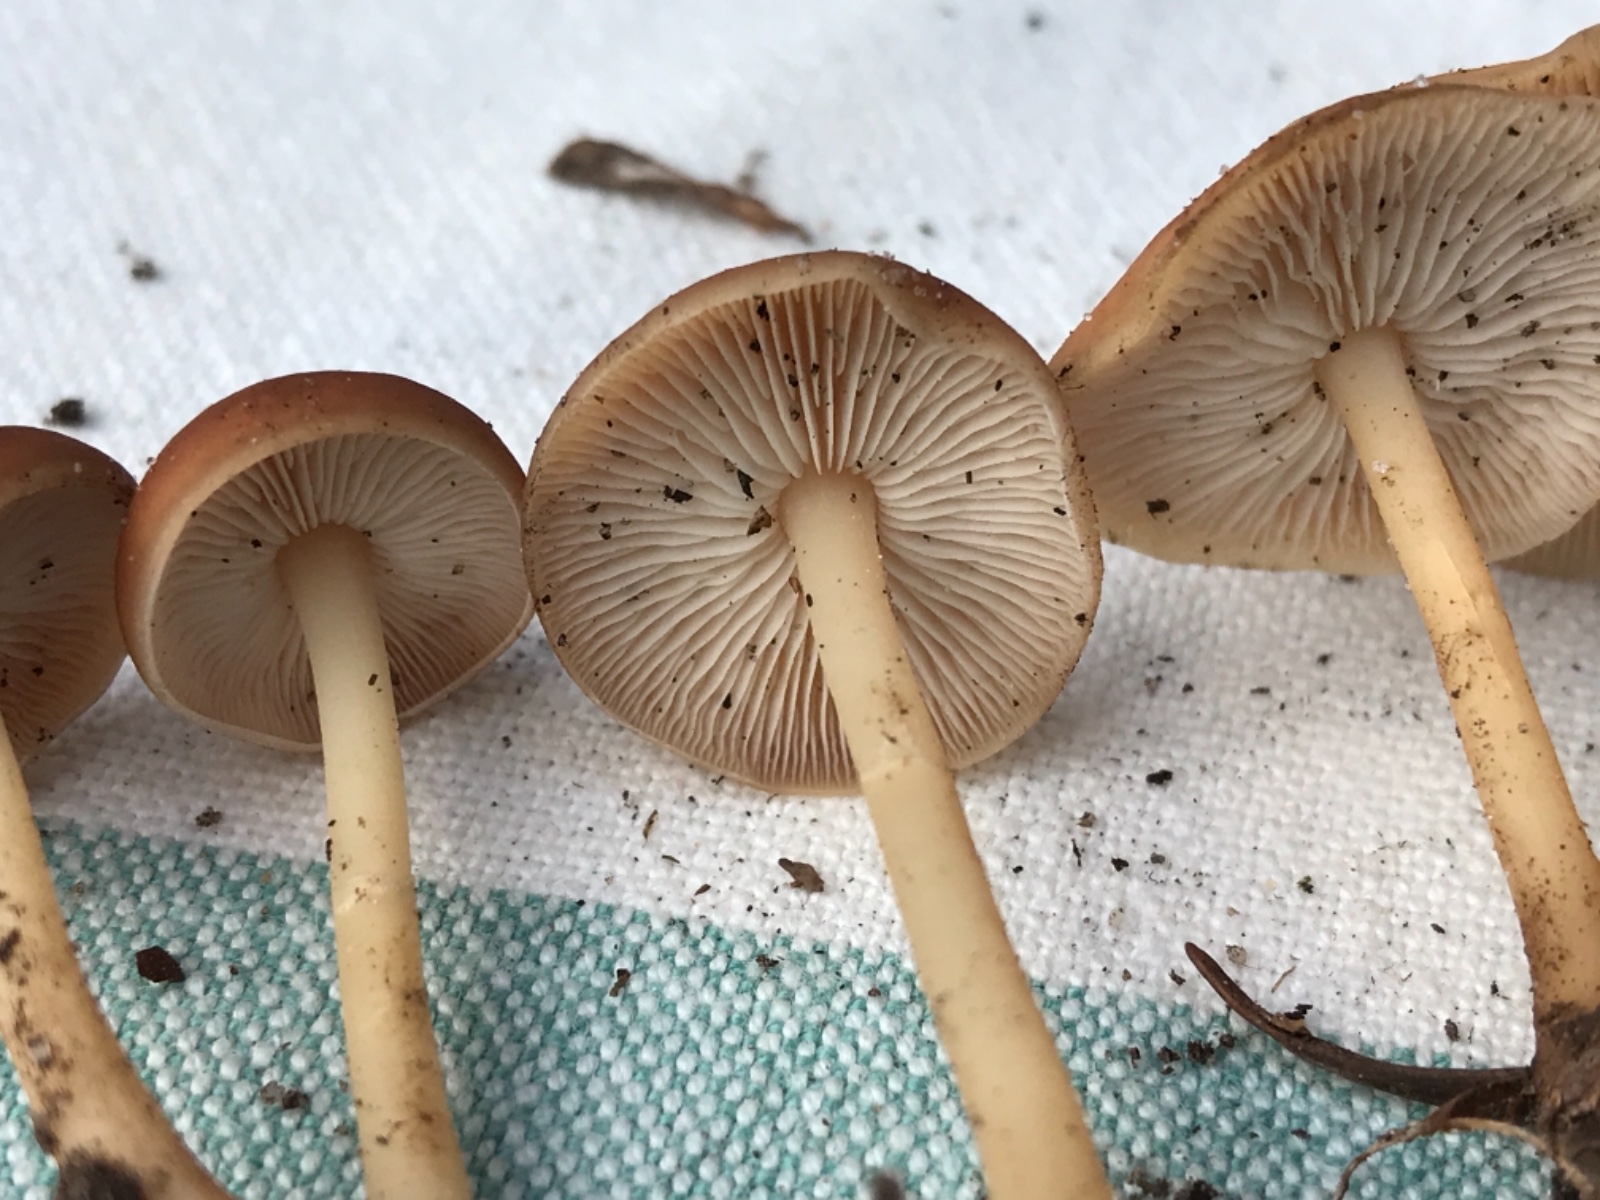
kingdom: Fungi
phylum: Basidiomycota
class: Agaricomycetes
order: Agaricales
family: Omphalotaceae
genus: Gymnopus
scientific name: Gymnopus ocior
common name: mørk fladhat
